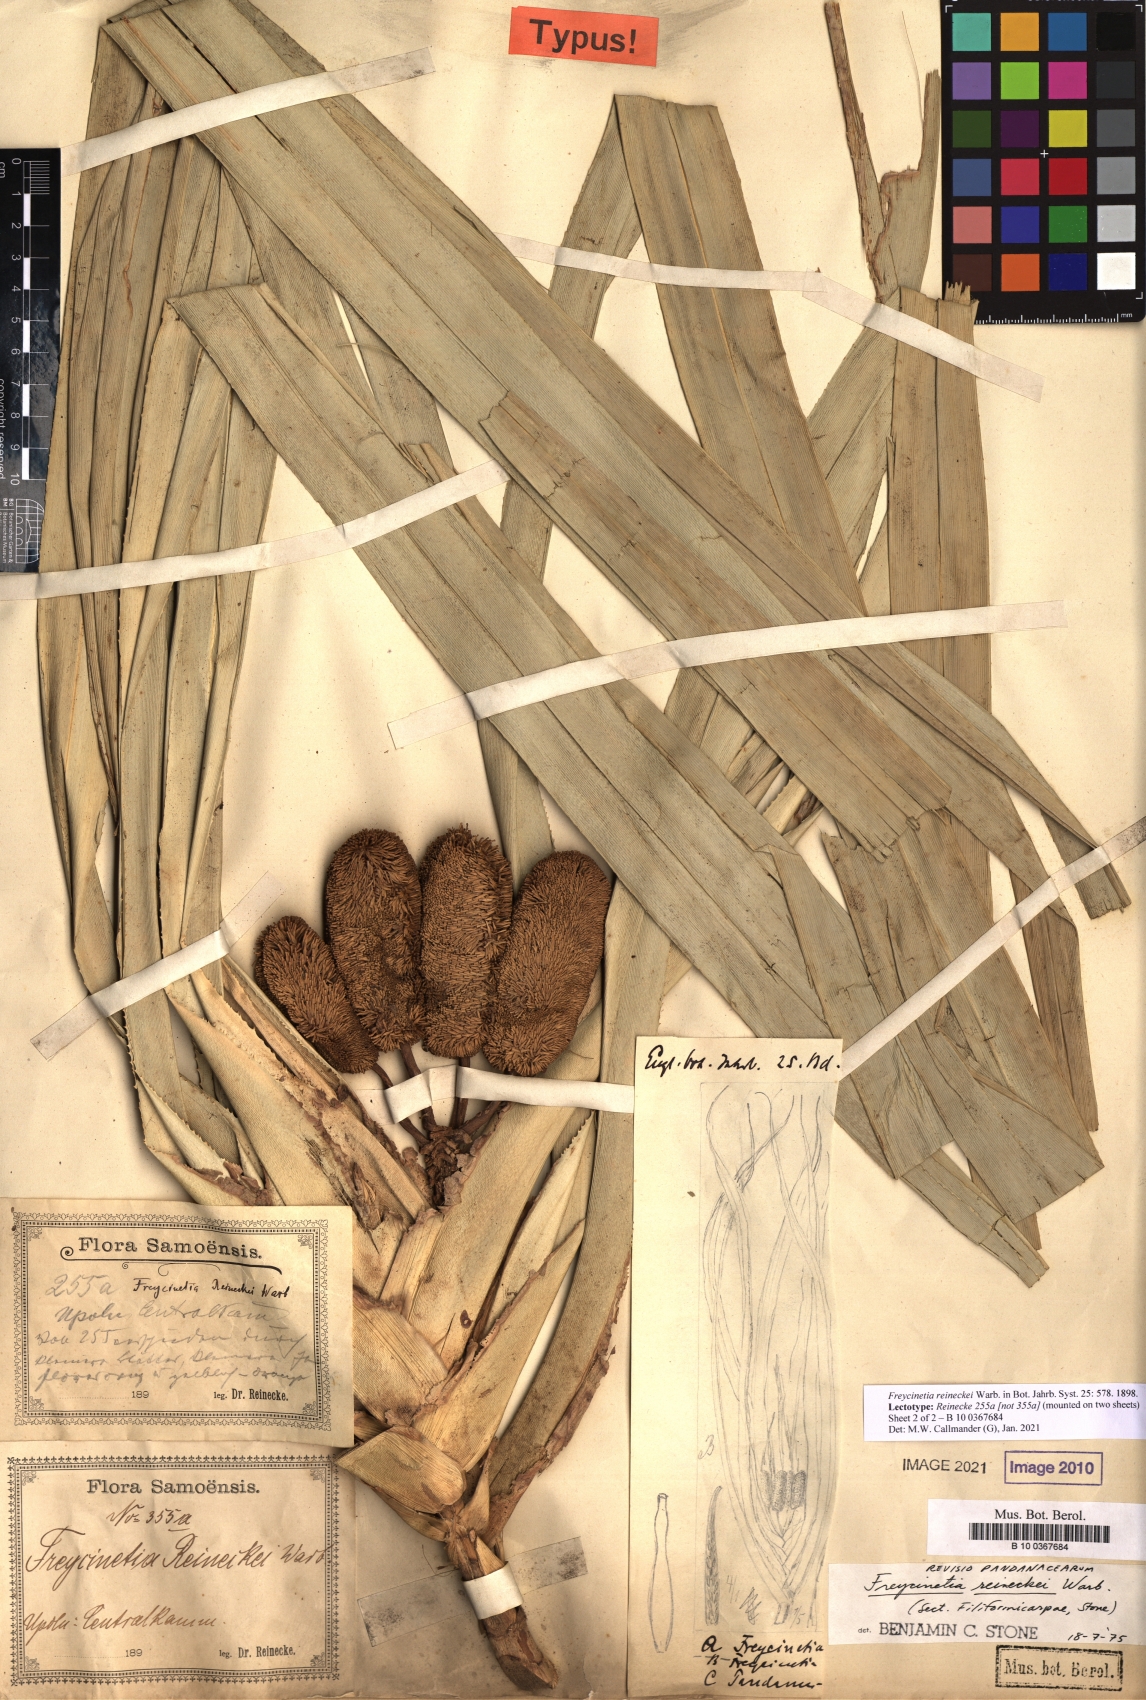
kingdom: Plantae
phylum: Tracheophyta
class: Liliopsida
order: Pandanales
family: Pandanaceae
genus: Freycinetia
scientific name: Freycinetia reineckei
